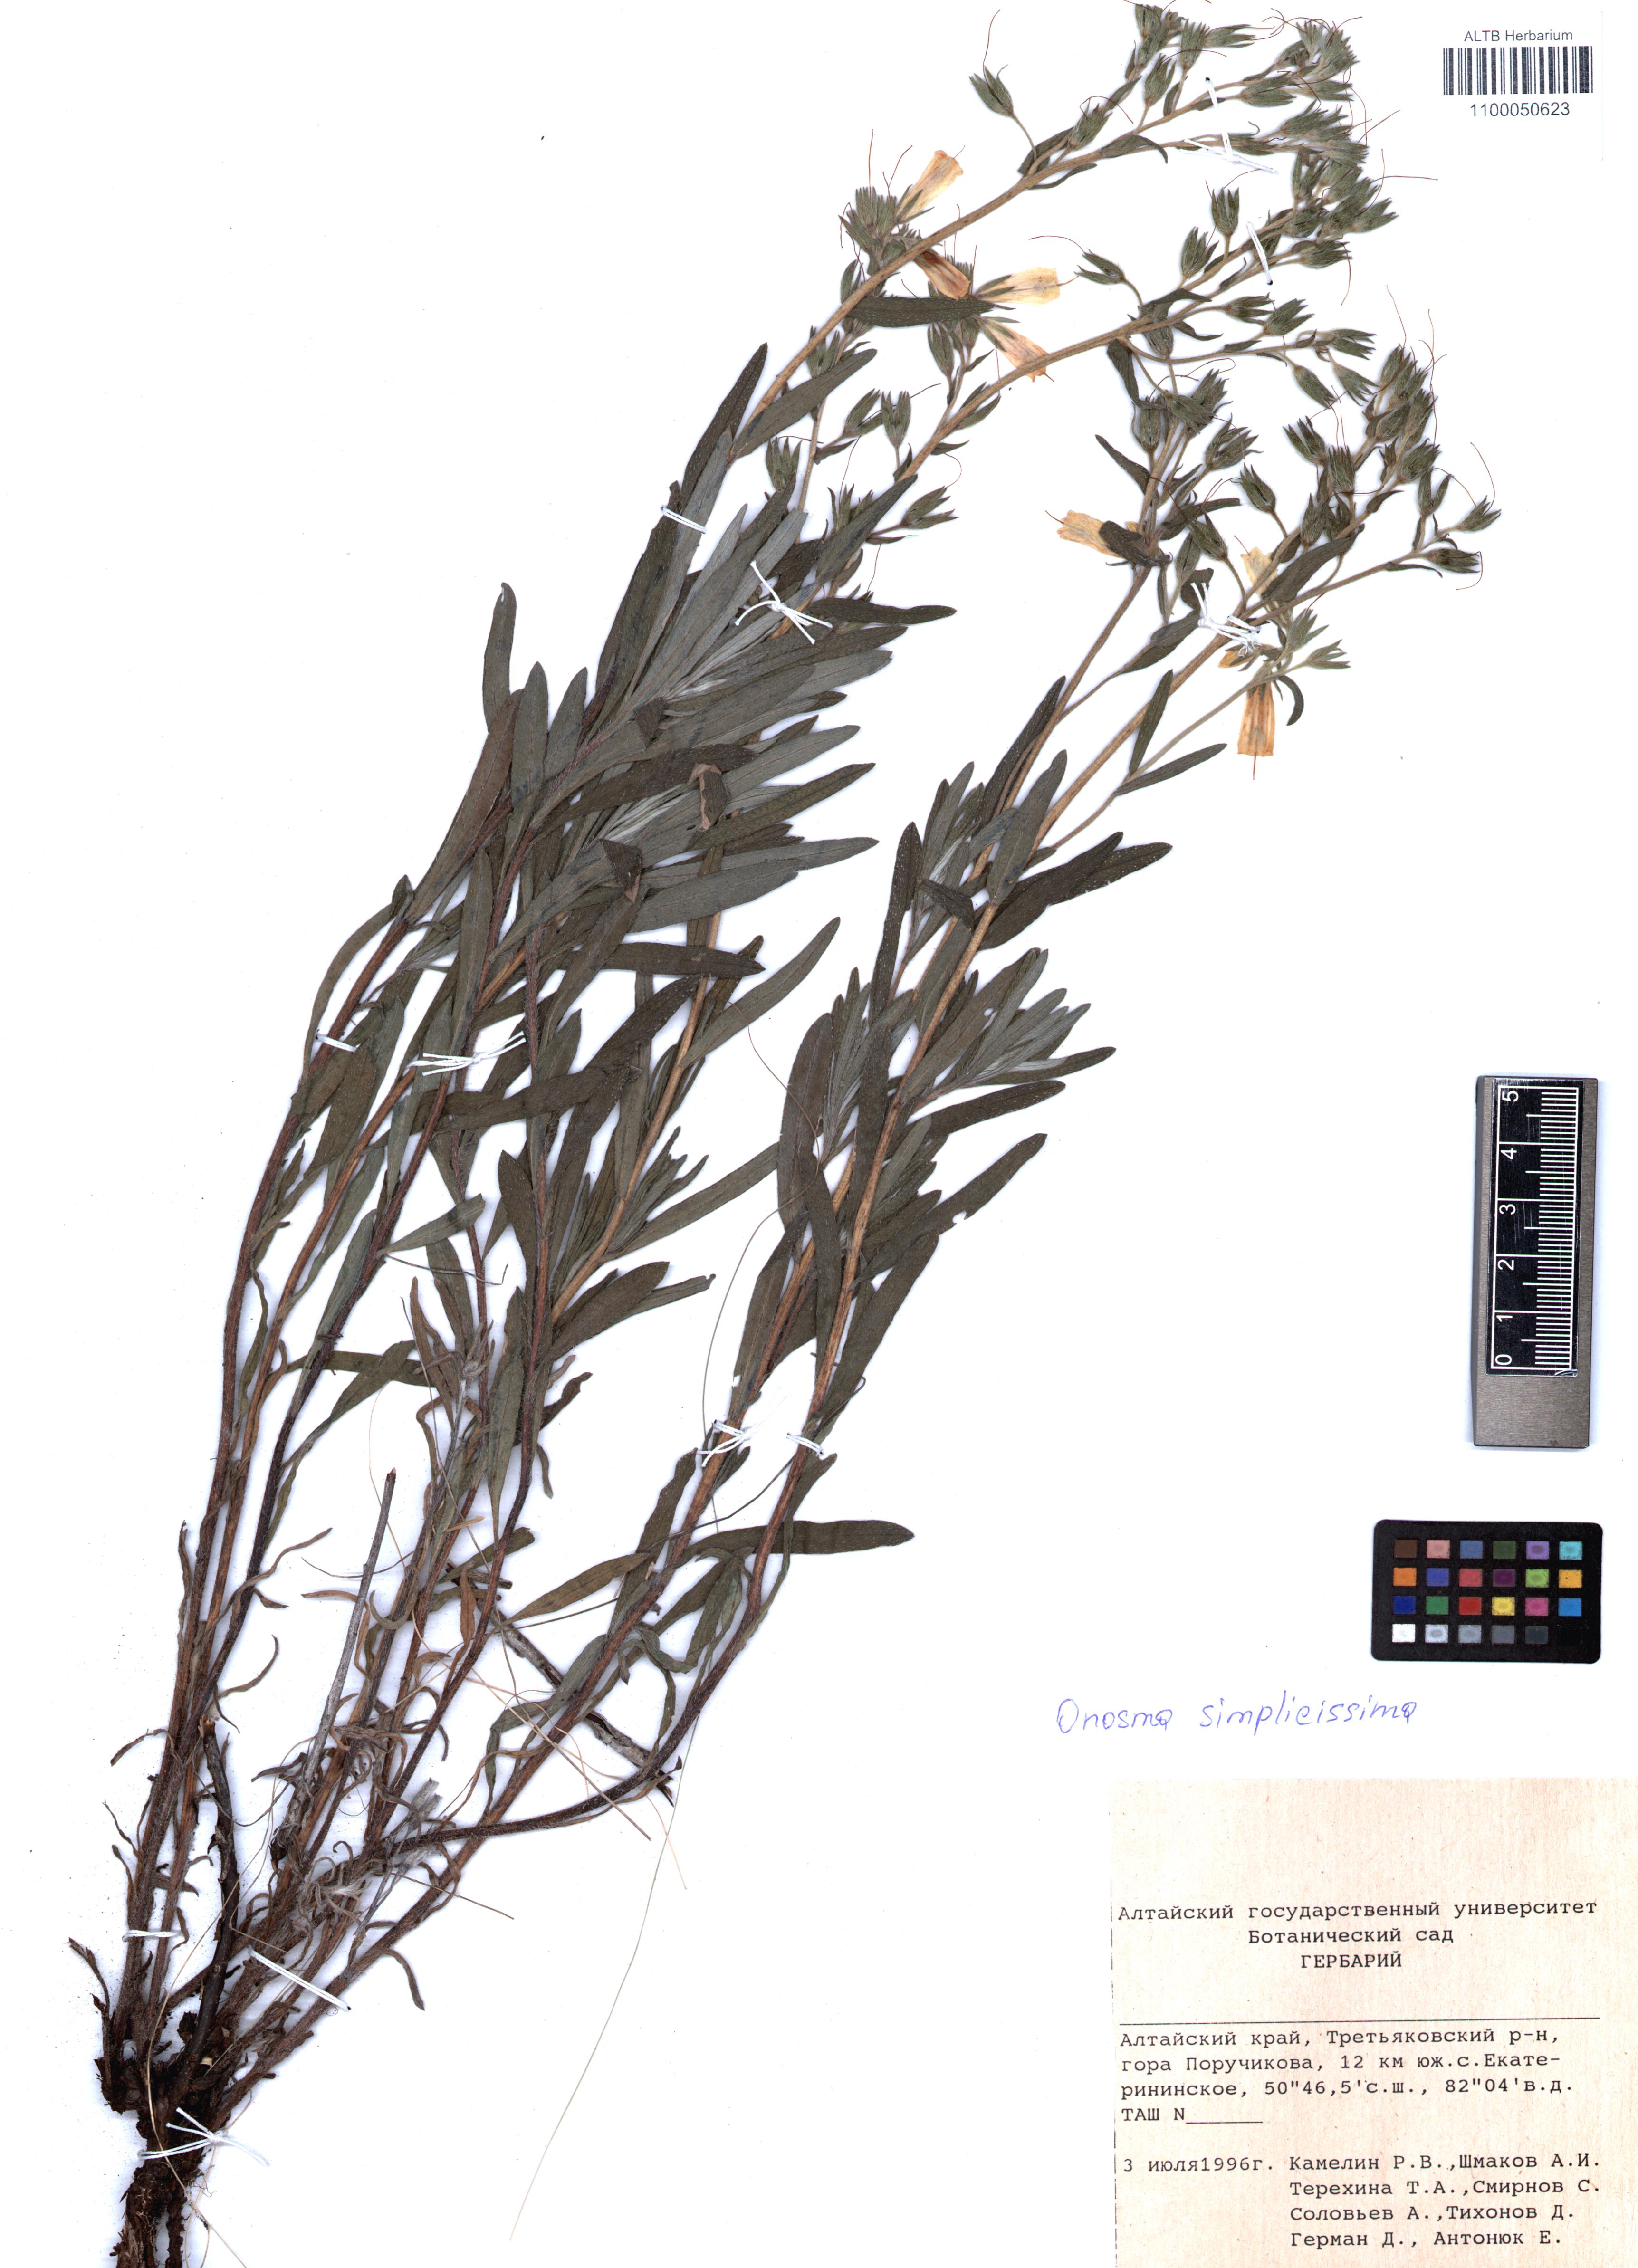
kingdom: Plantae
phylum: Tracheophyta
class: Magnoliopsida
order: Boraginales
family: Boraginaceae
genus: Onosma
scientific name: Onosma simplicissima
